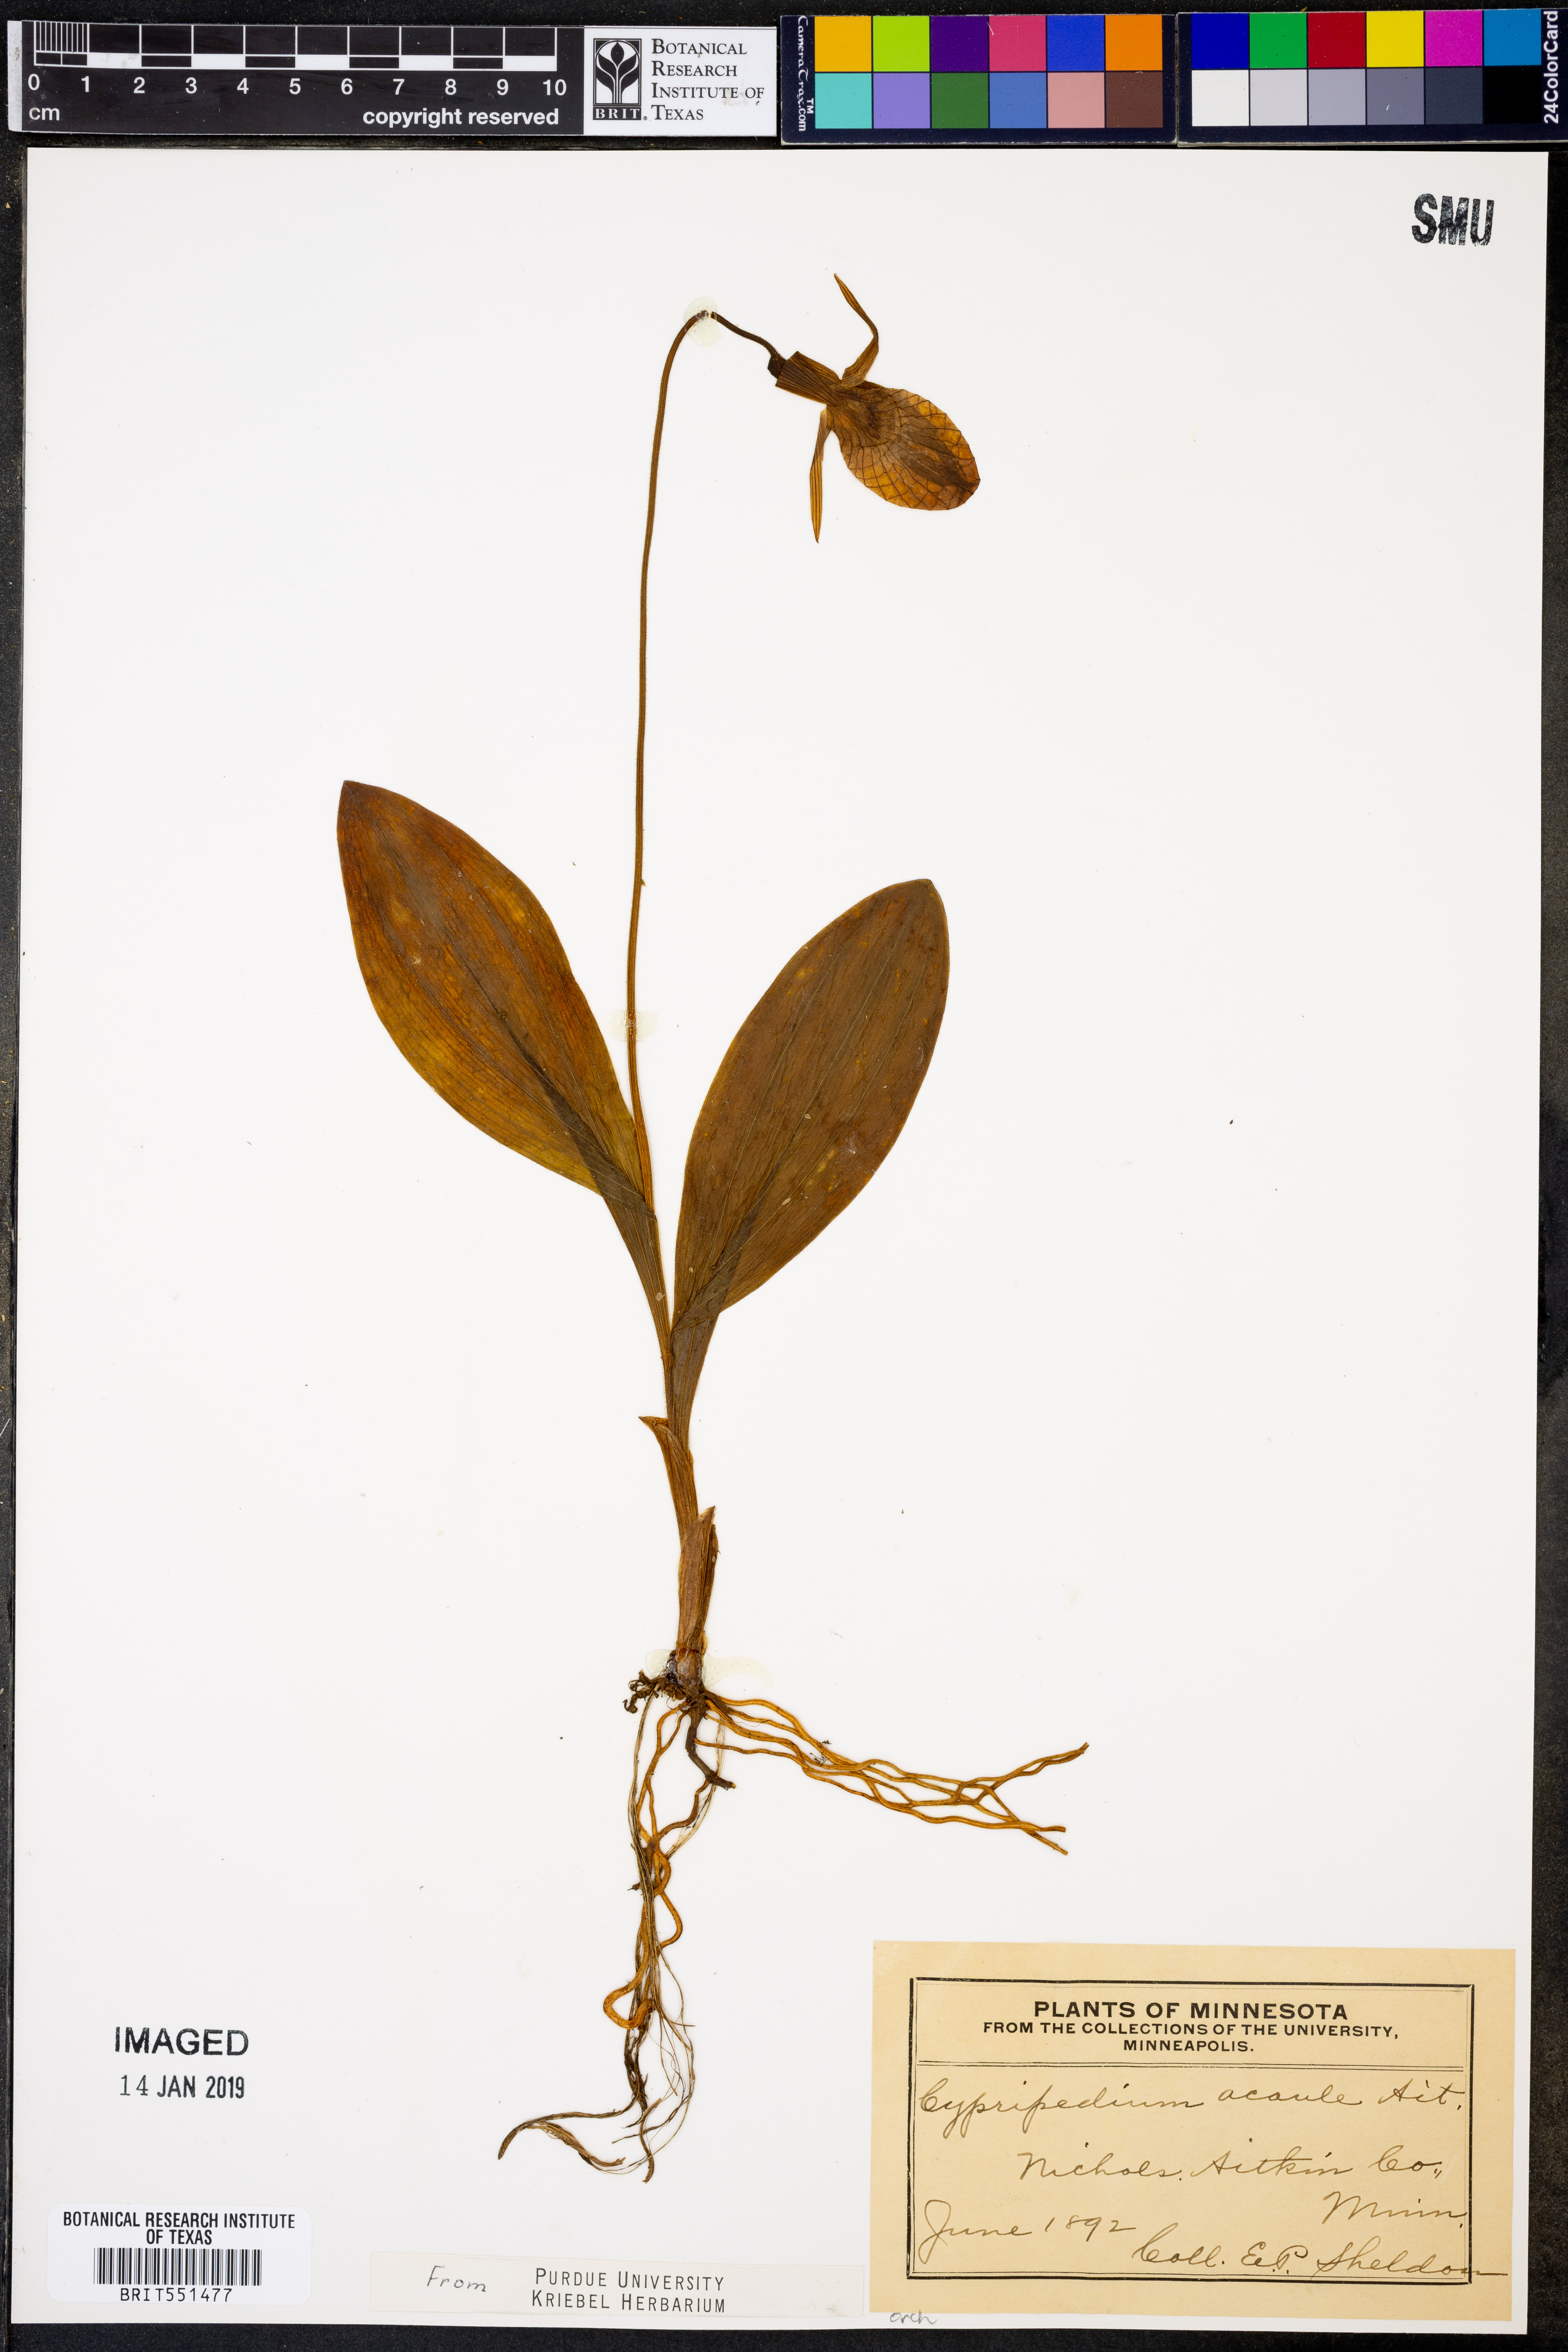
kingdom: Plantae
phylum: Tracheophyta
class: Liliopsida
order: Asparagales
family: Orchidaceae
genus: Cypripedium
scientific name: Cypripedium acaule
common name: Pink lady's-slipper
